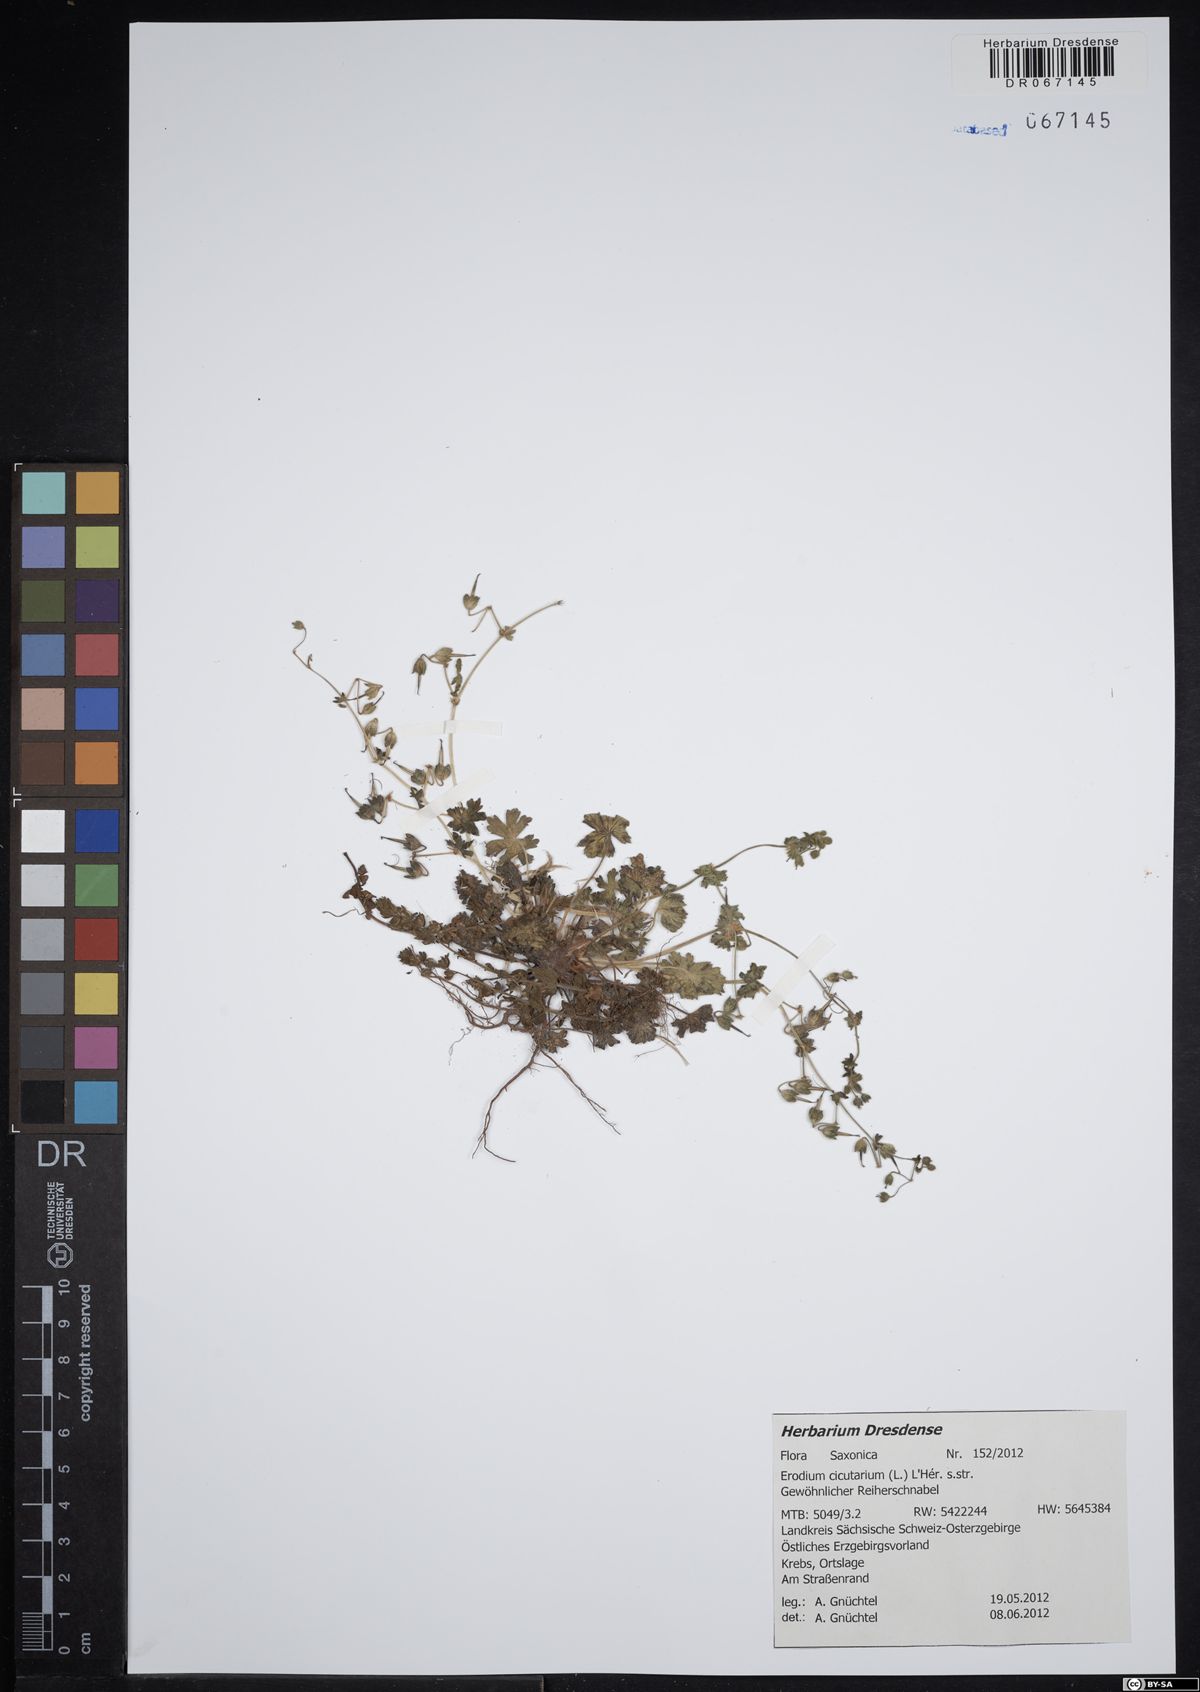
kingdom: Plantae
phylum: Tracheophyta
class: Magnoliopsida
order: Geraniales
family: Geraniaceae
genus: Erodium
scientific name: Erodium cicutarium
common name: Common stork's-bill
